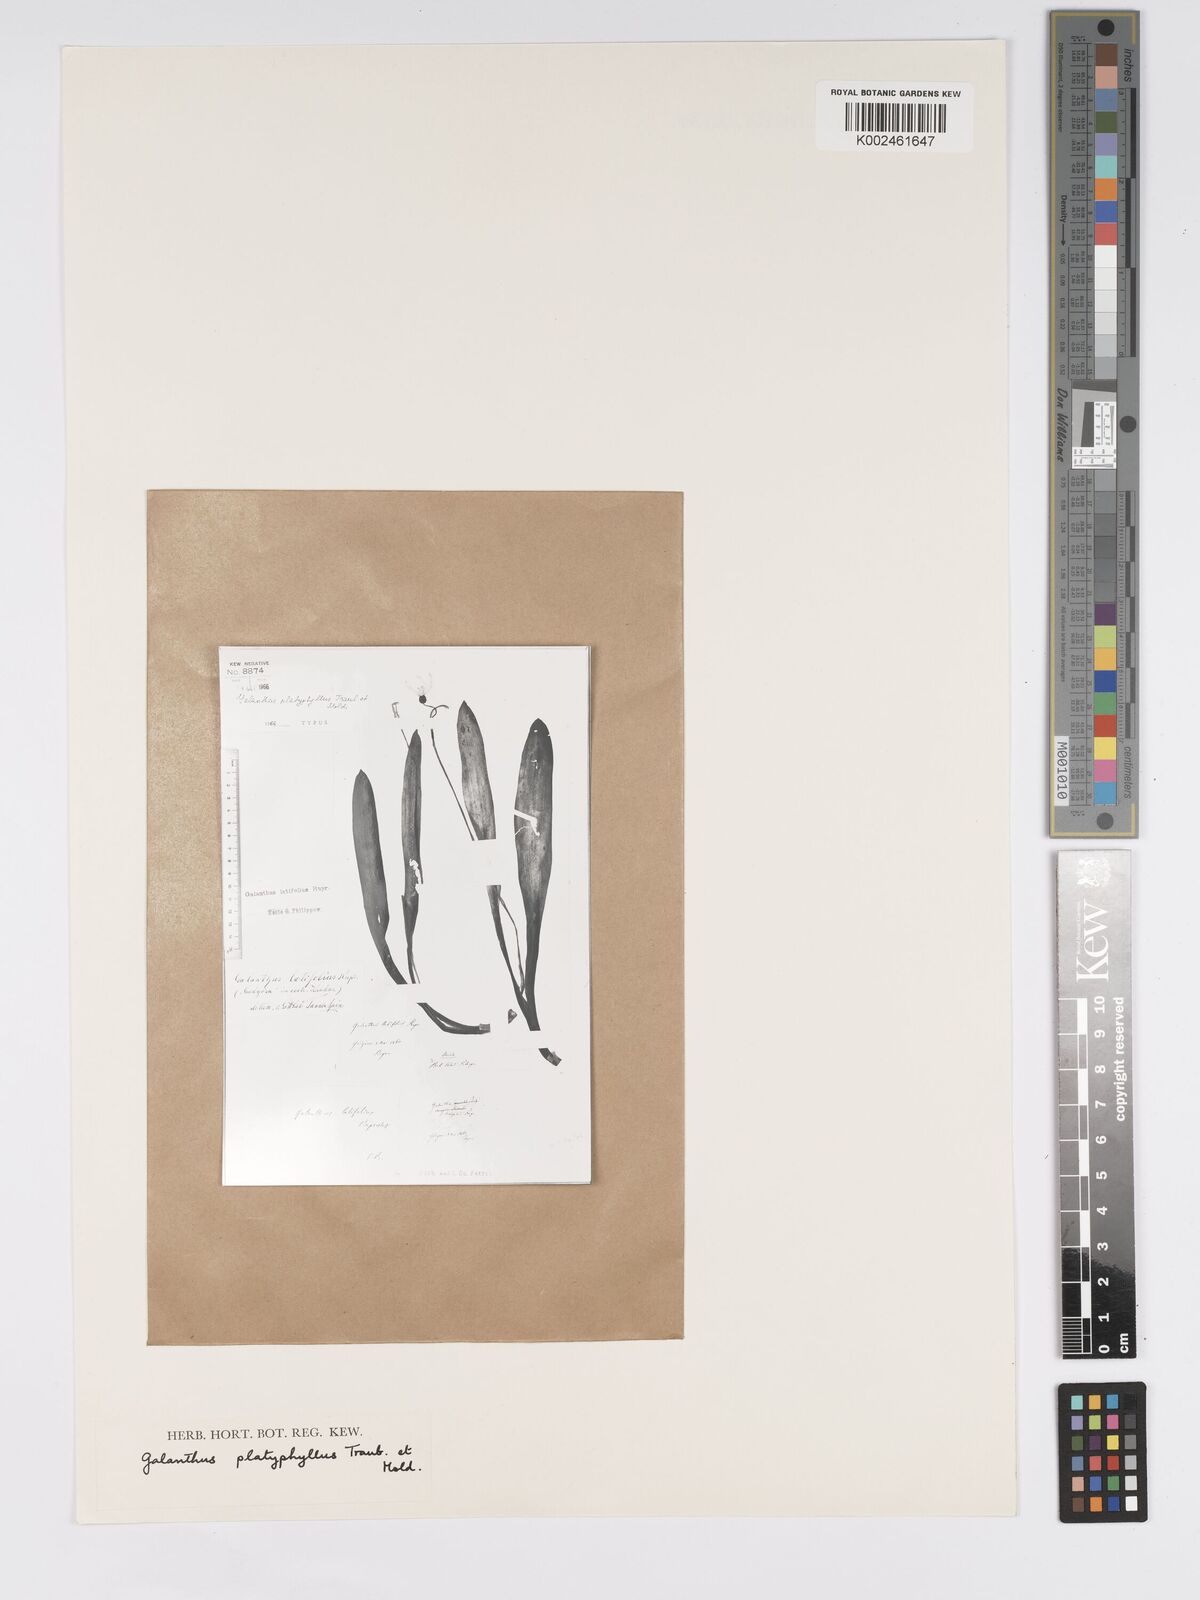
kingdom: Plantae
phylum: Tracheophyta
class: Liliopsida
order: Asparagales
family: Amaryllidaceae
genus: Galanthus
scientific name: Galanthus platyphyllus
